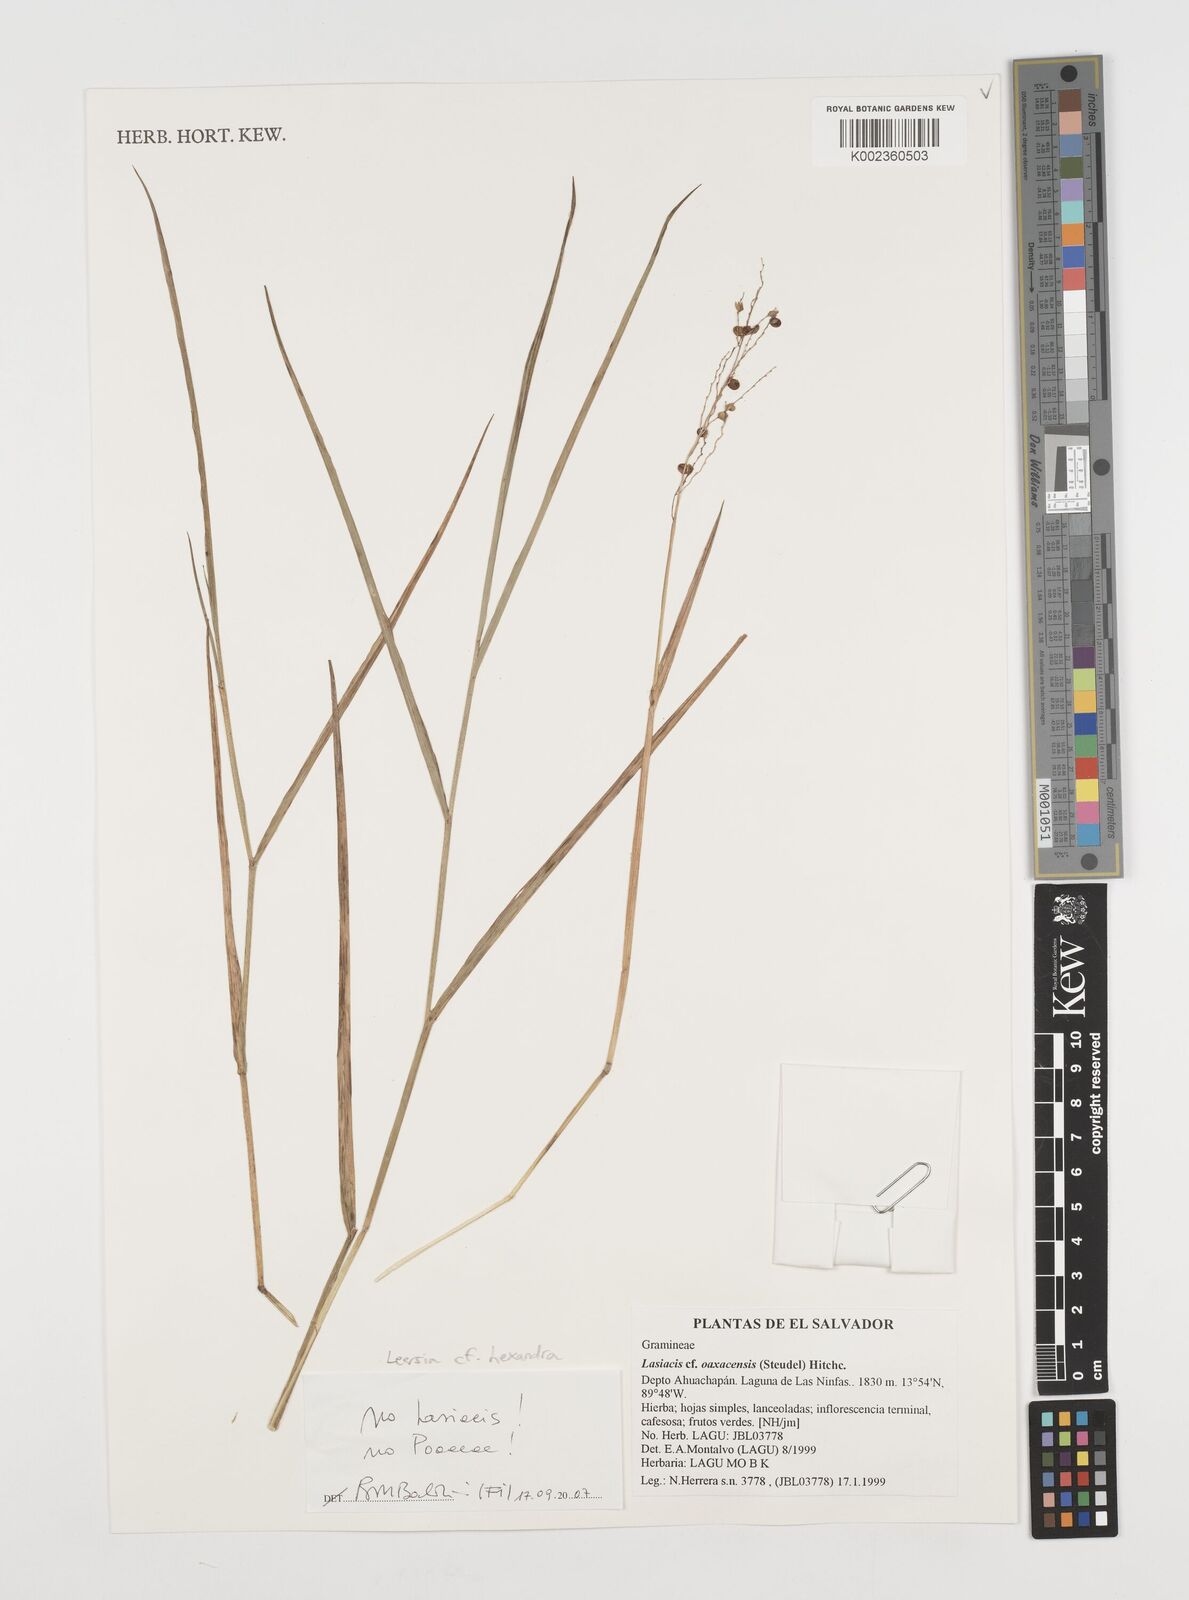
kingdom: Plantae
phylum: Tracheophyta
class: Liliopsida
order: Poales
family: Poaceae
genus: Leersia
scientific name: Leersia hexandra
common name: Southern cut grass
